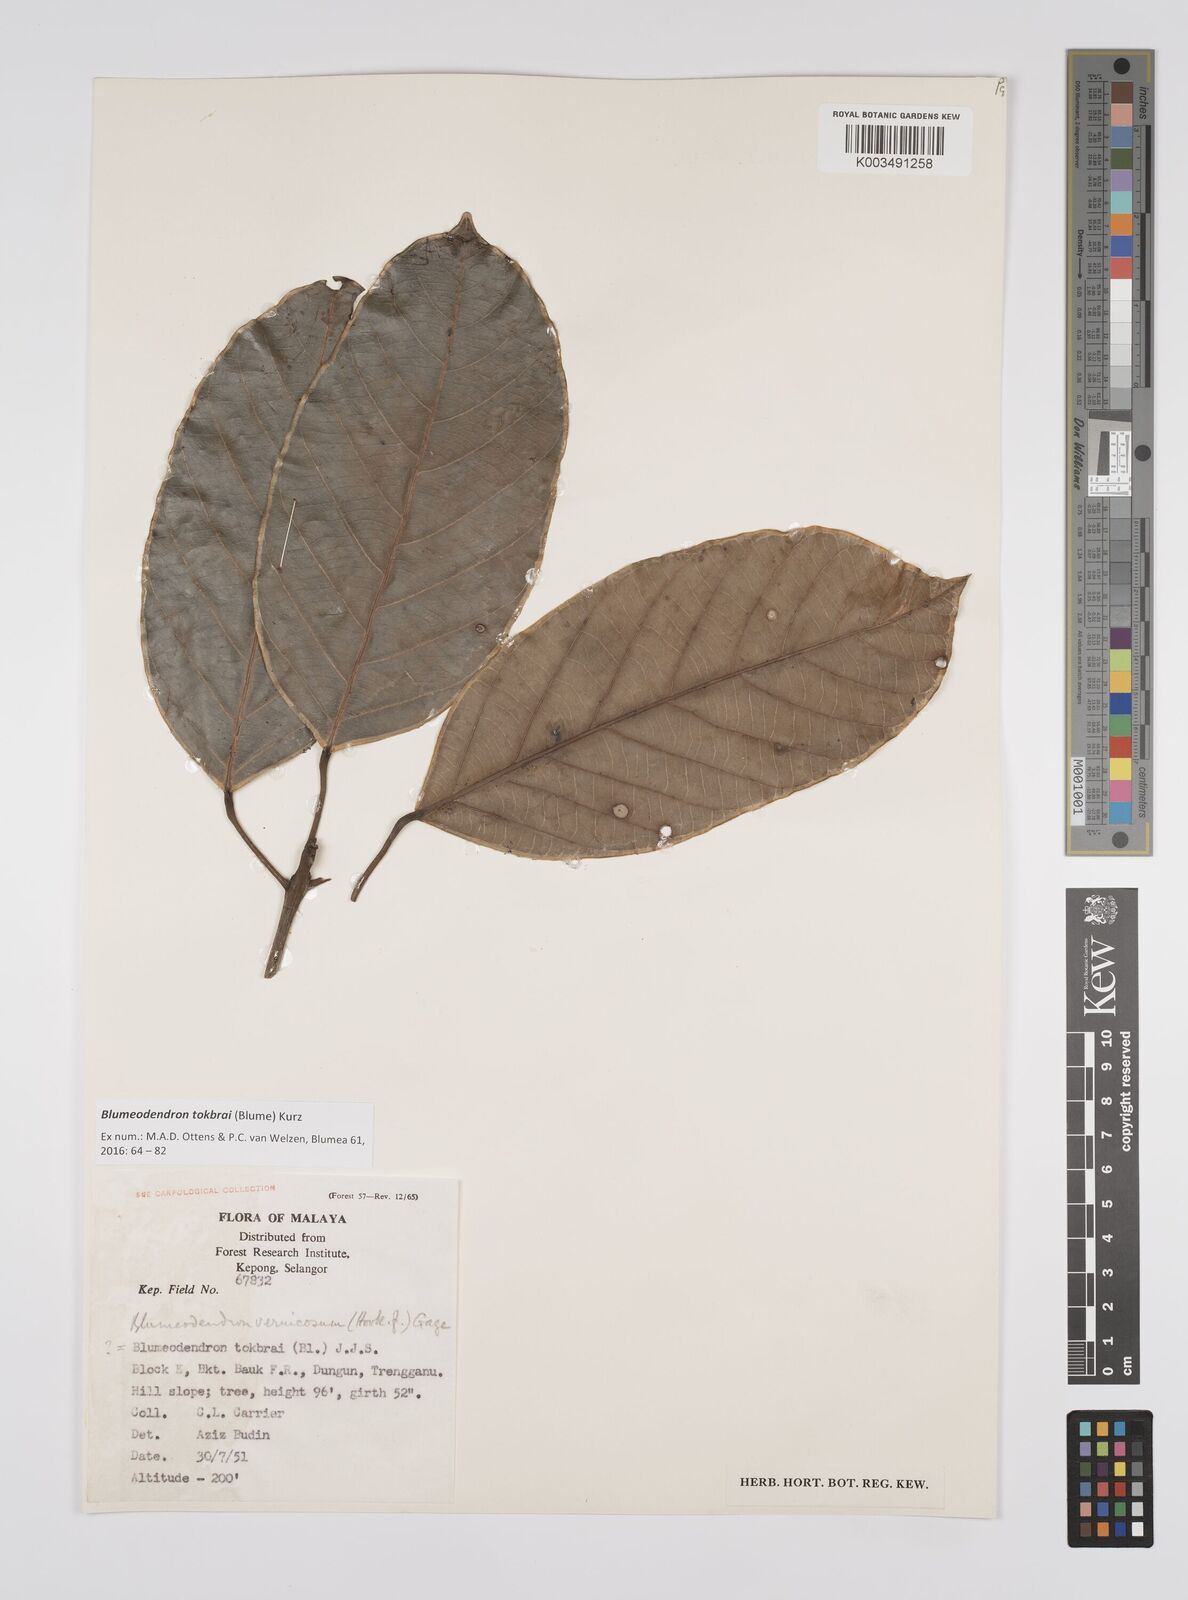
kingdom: Plantae
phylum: Tracheophyta
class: Magnoliopsida
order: Malpighiales
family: Euphorbiaceae
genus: Blumeodendron
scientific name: Blumeodendron tokbrai
